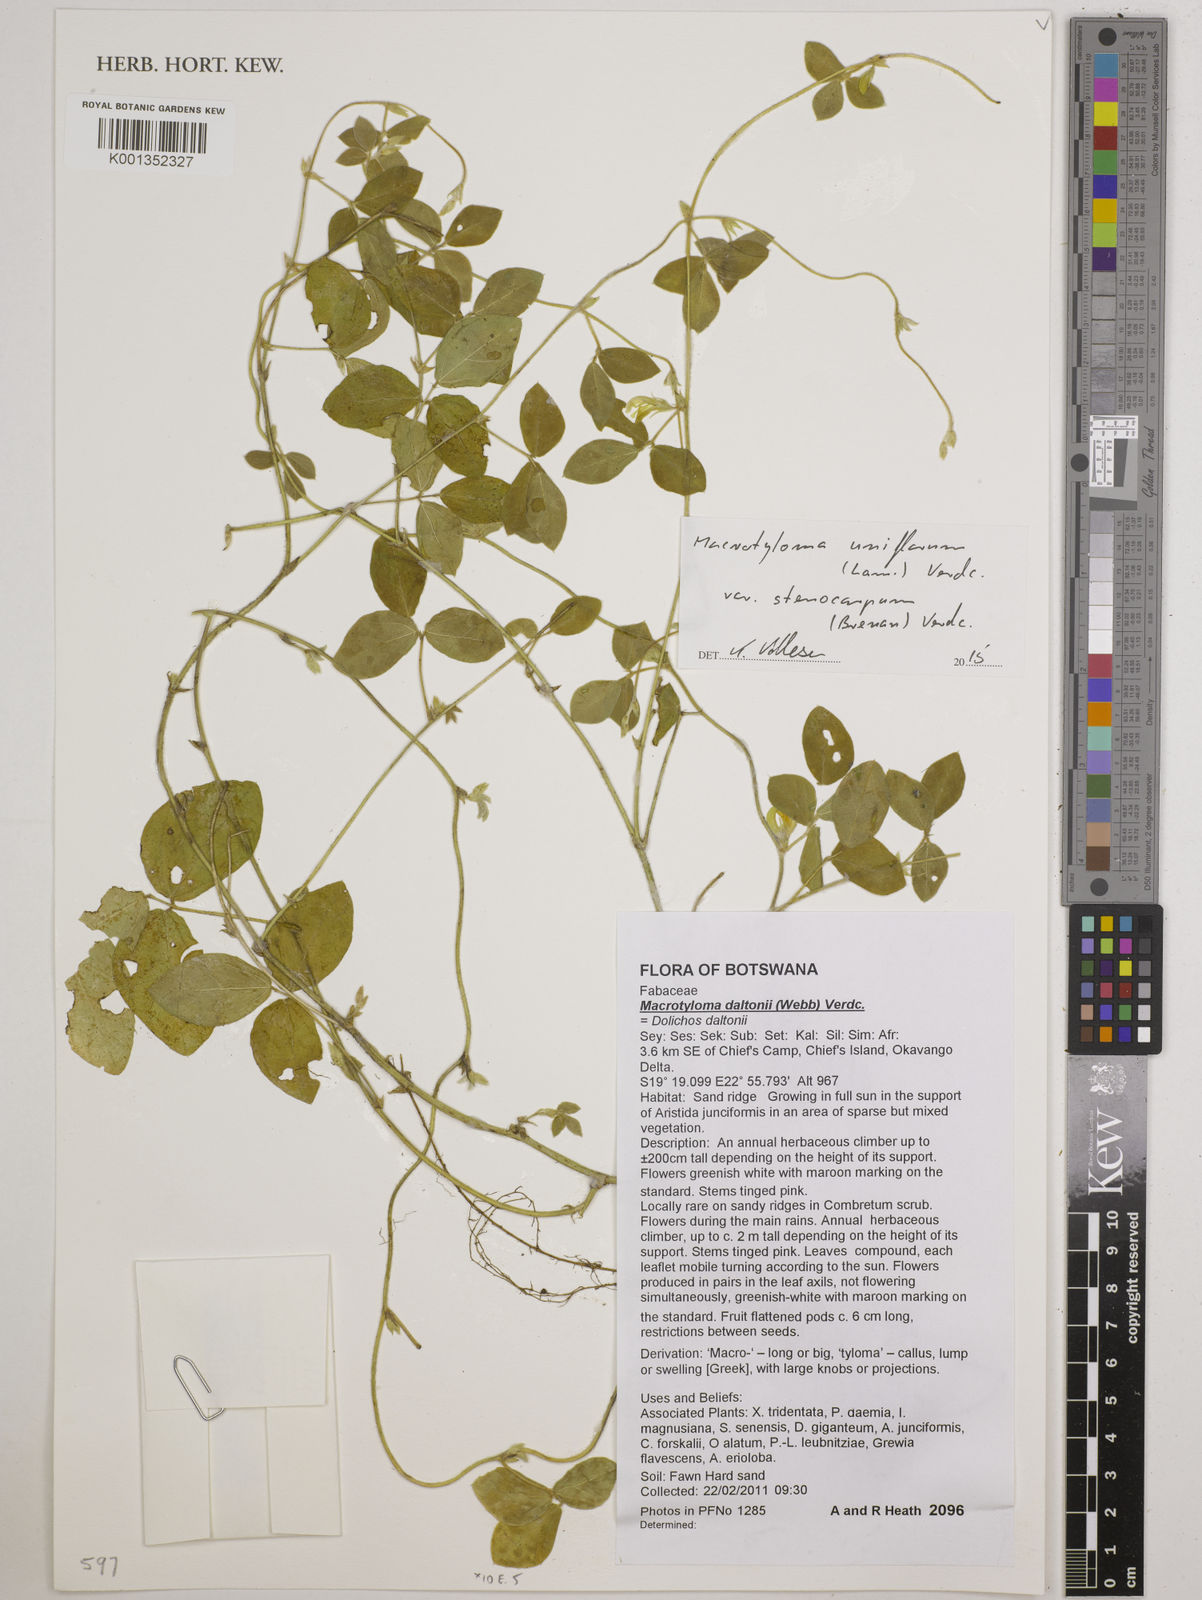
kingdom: Plantae
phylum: Tracheophyta
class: Magnoliopsida
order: Fabales
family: Fabaceae
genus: Macrotyloma
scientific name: Macrotyloma
